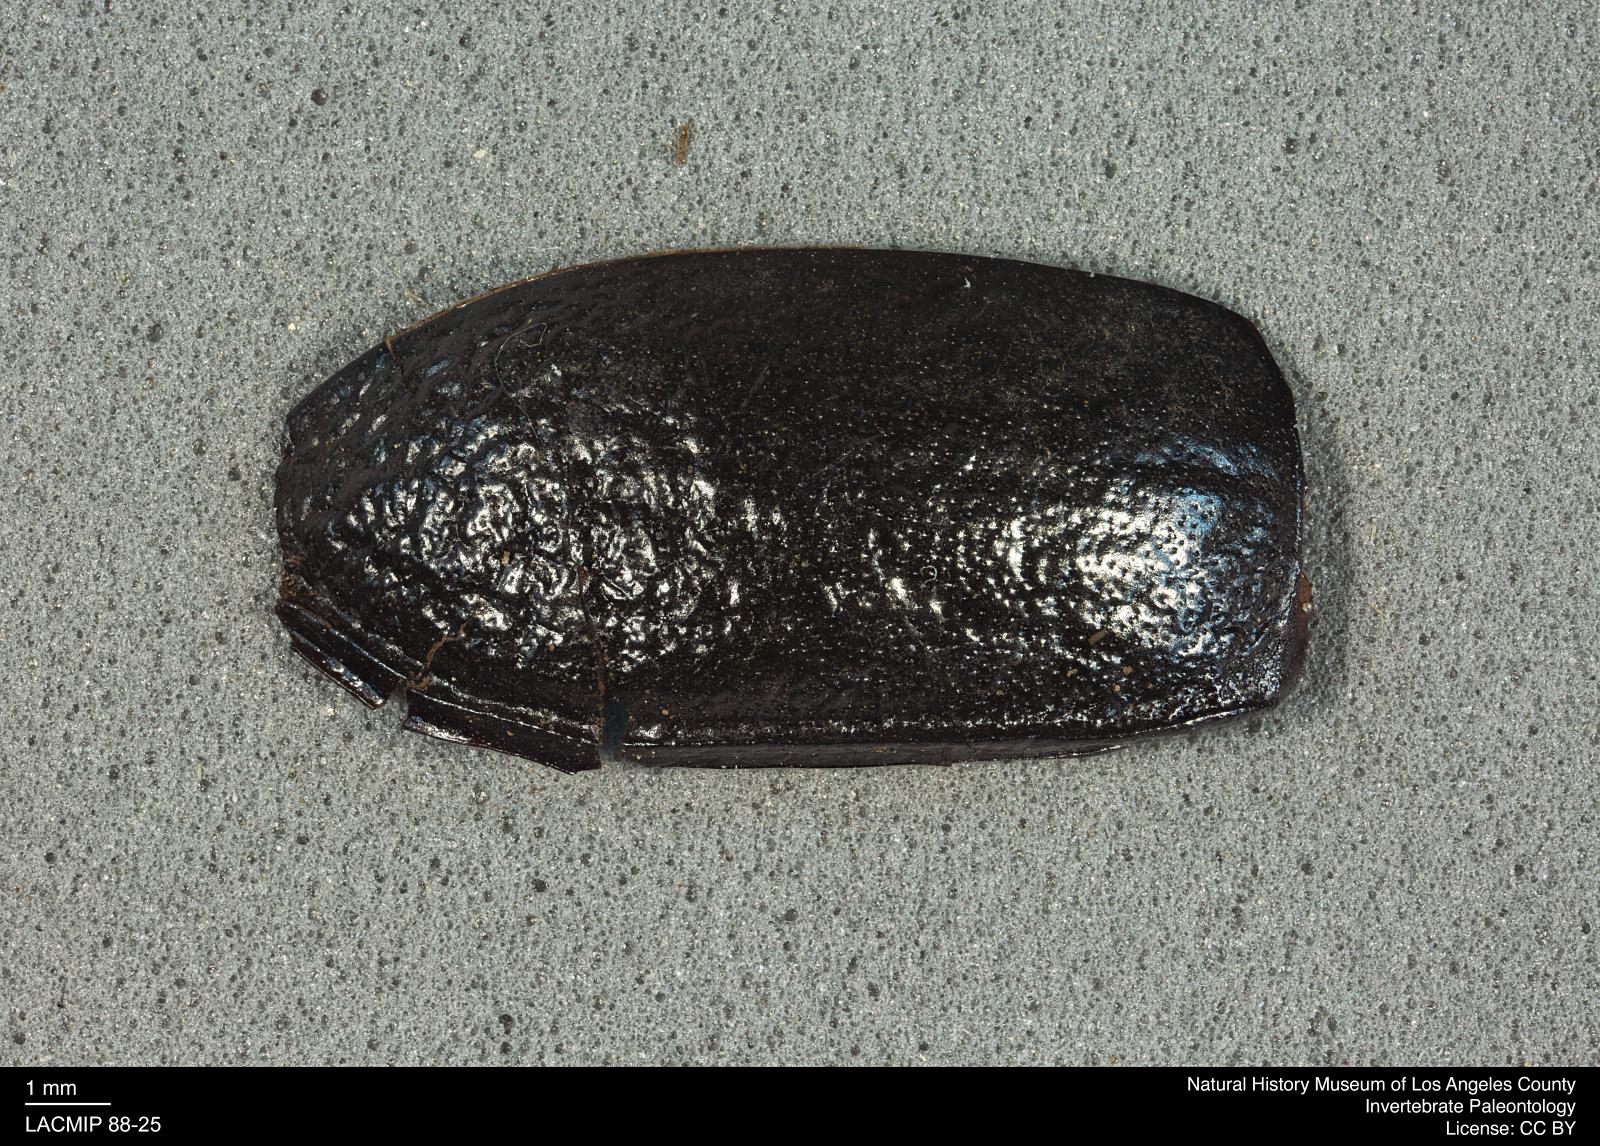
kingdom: Animalia
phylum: Arthropoda
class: Insecta
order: Coleoptera
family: Tenebrionidae
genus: Coniontis
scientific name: Coniontis abdominalis
